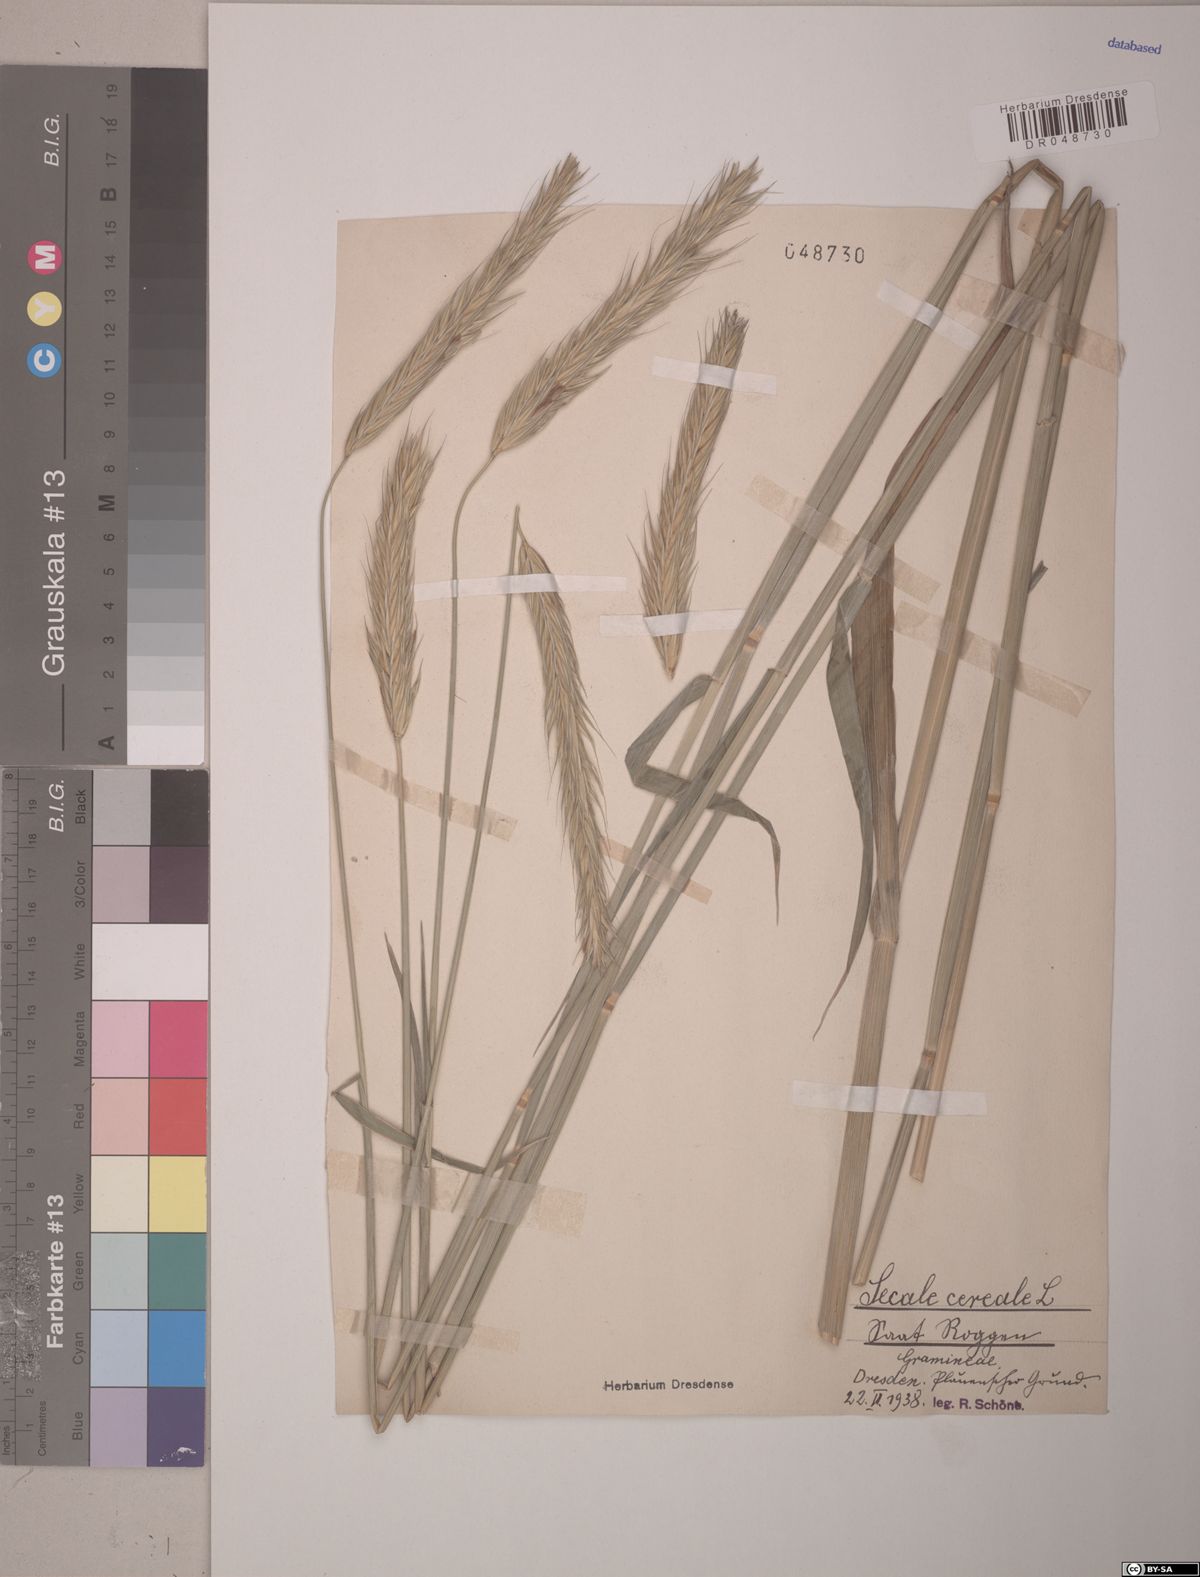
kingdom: Plantae
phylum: Tracheophyta
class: Liliopsida
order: Poales
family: Poaceae
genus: Secale
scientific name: Secale cereale
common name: Rye
